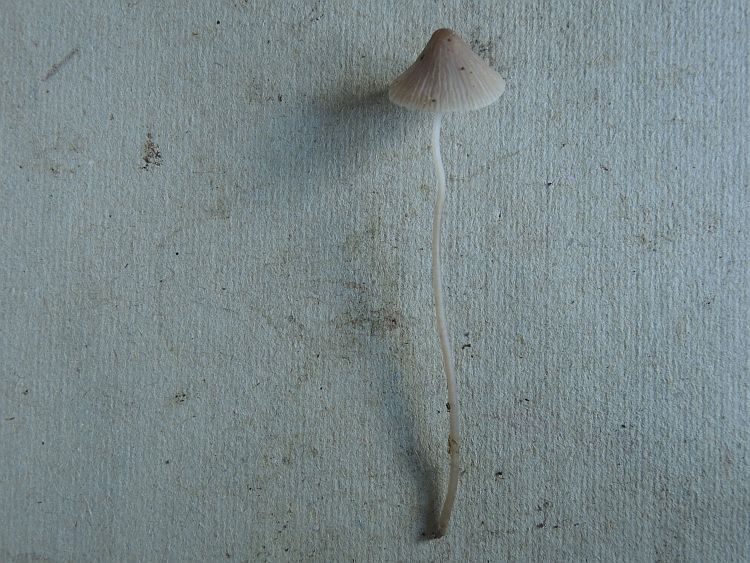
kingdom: Fungi
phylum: Basidiomycota
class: Agaricomycetes
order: Agaricales
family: Mycenaceae
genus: Mycena
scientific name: Mycena metata
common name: rødlig huesvamp
